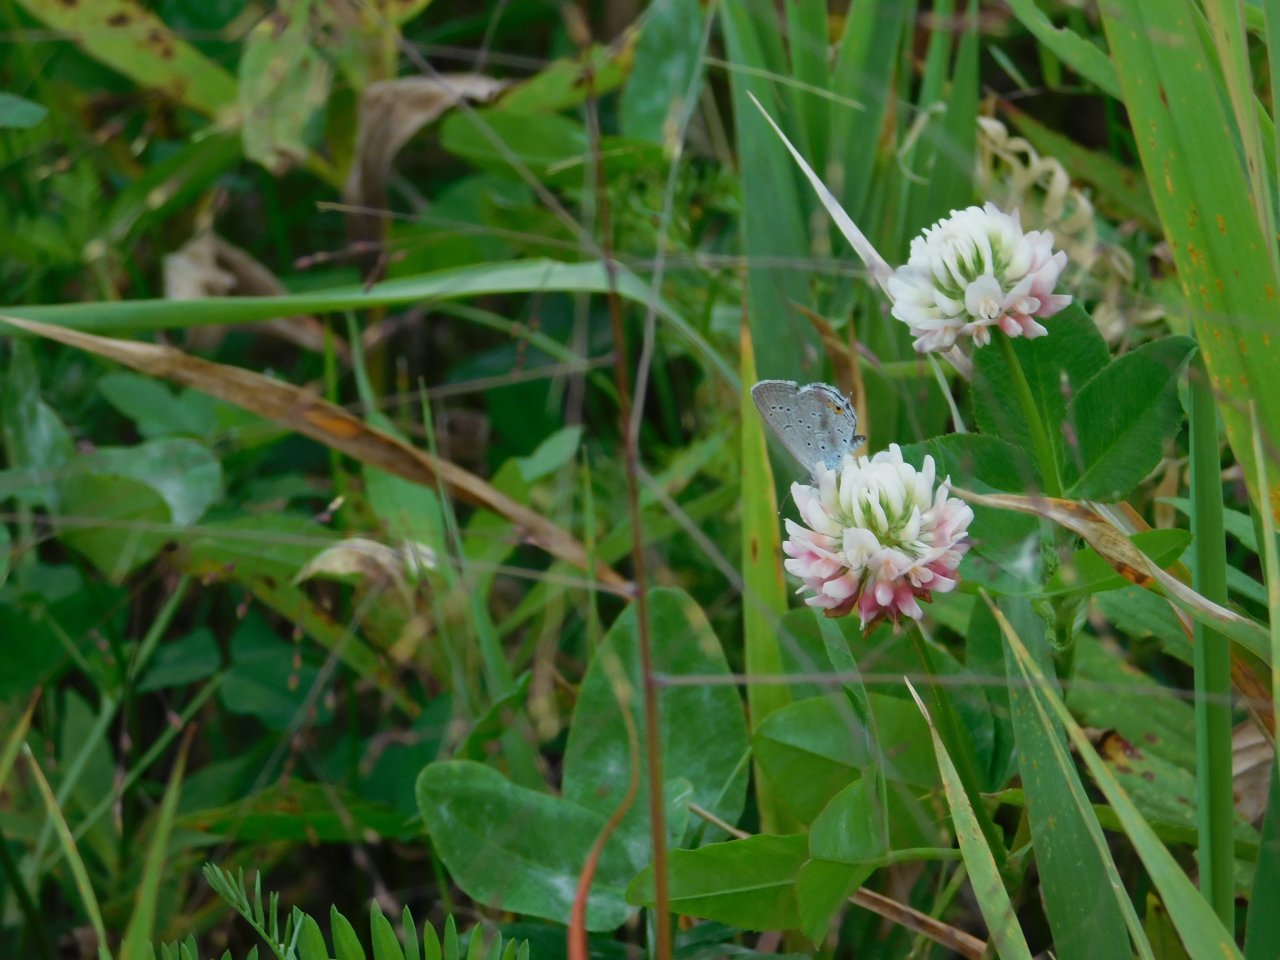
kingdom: Animalia
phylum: Arthropoda
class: Insecta
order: Lepidoptera
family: Lycaenidae
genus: Elkalyce
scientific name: Elkalyce comyntas
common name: Eastern Tailed-Blue
